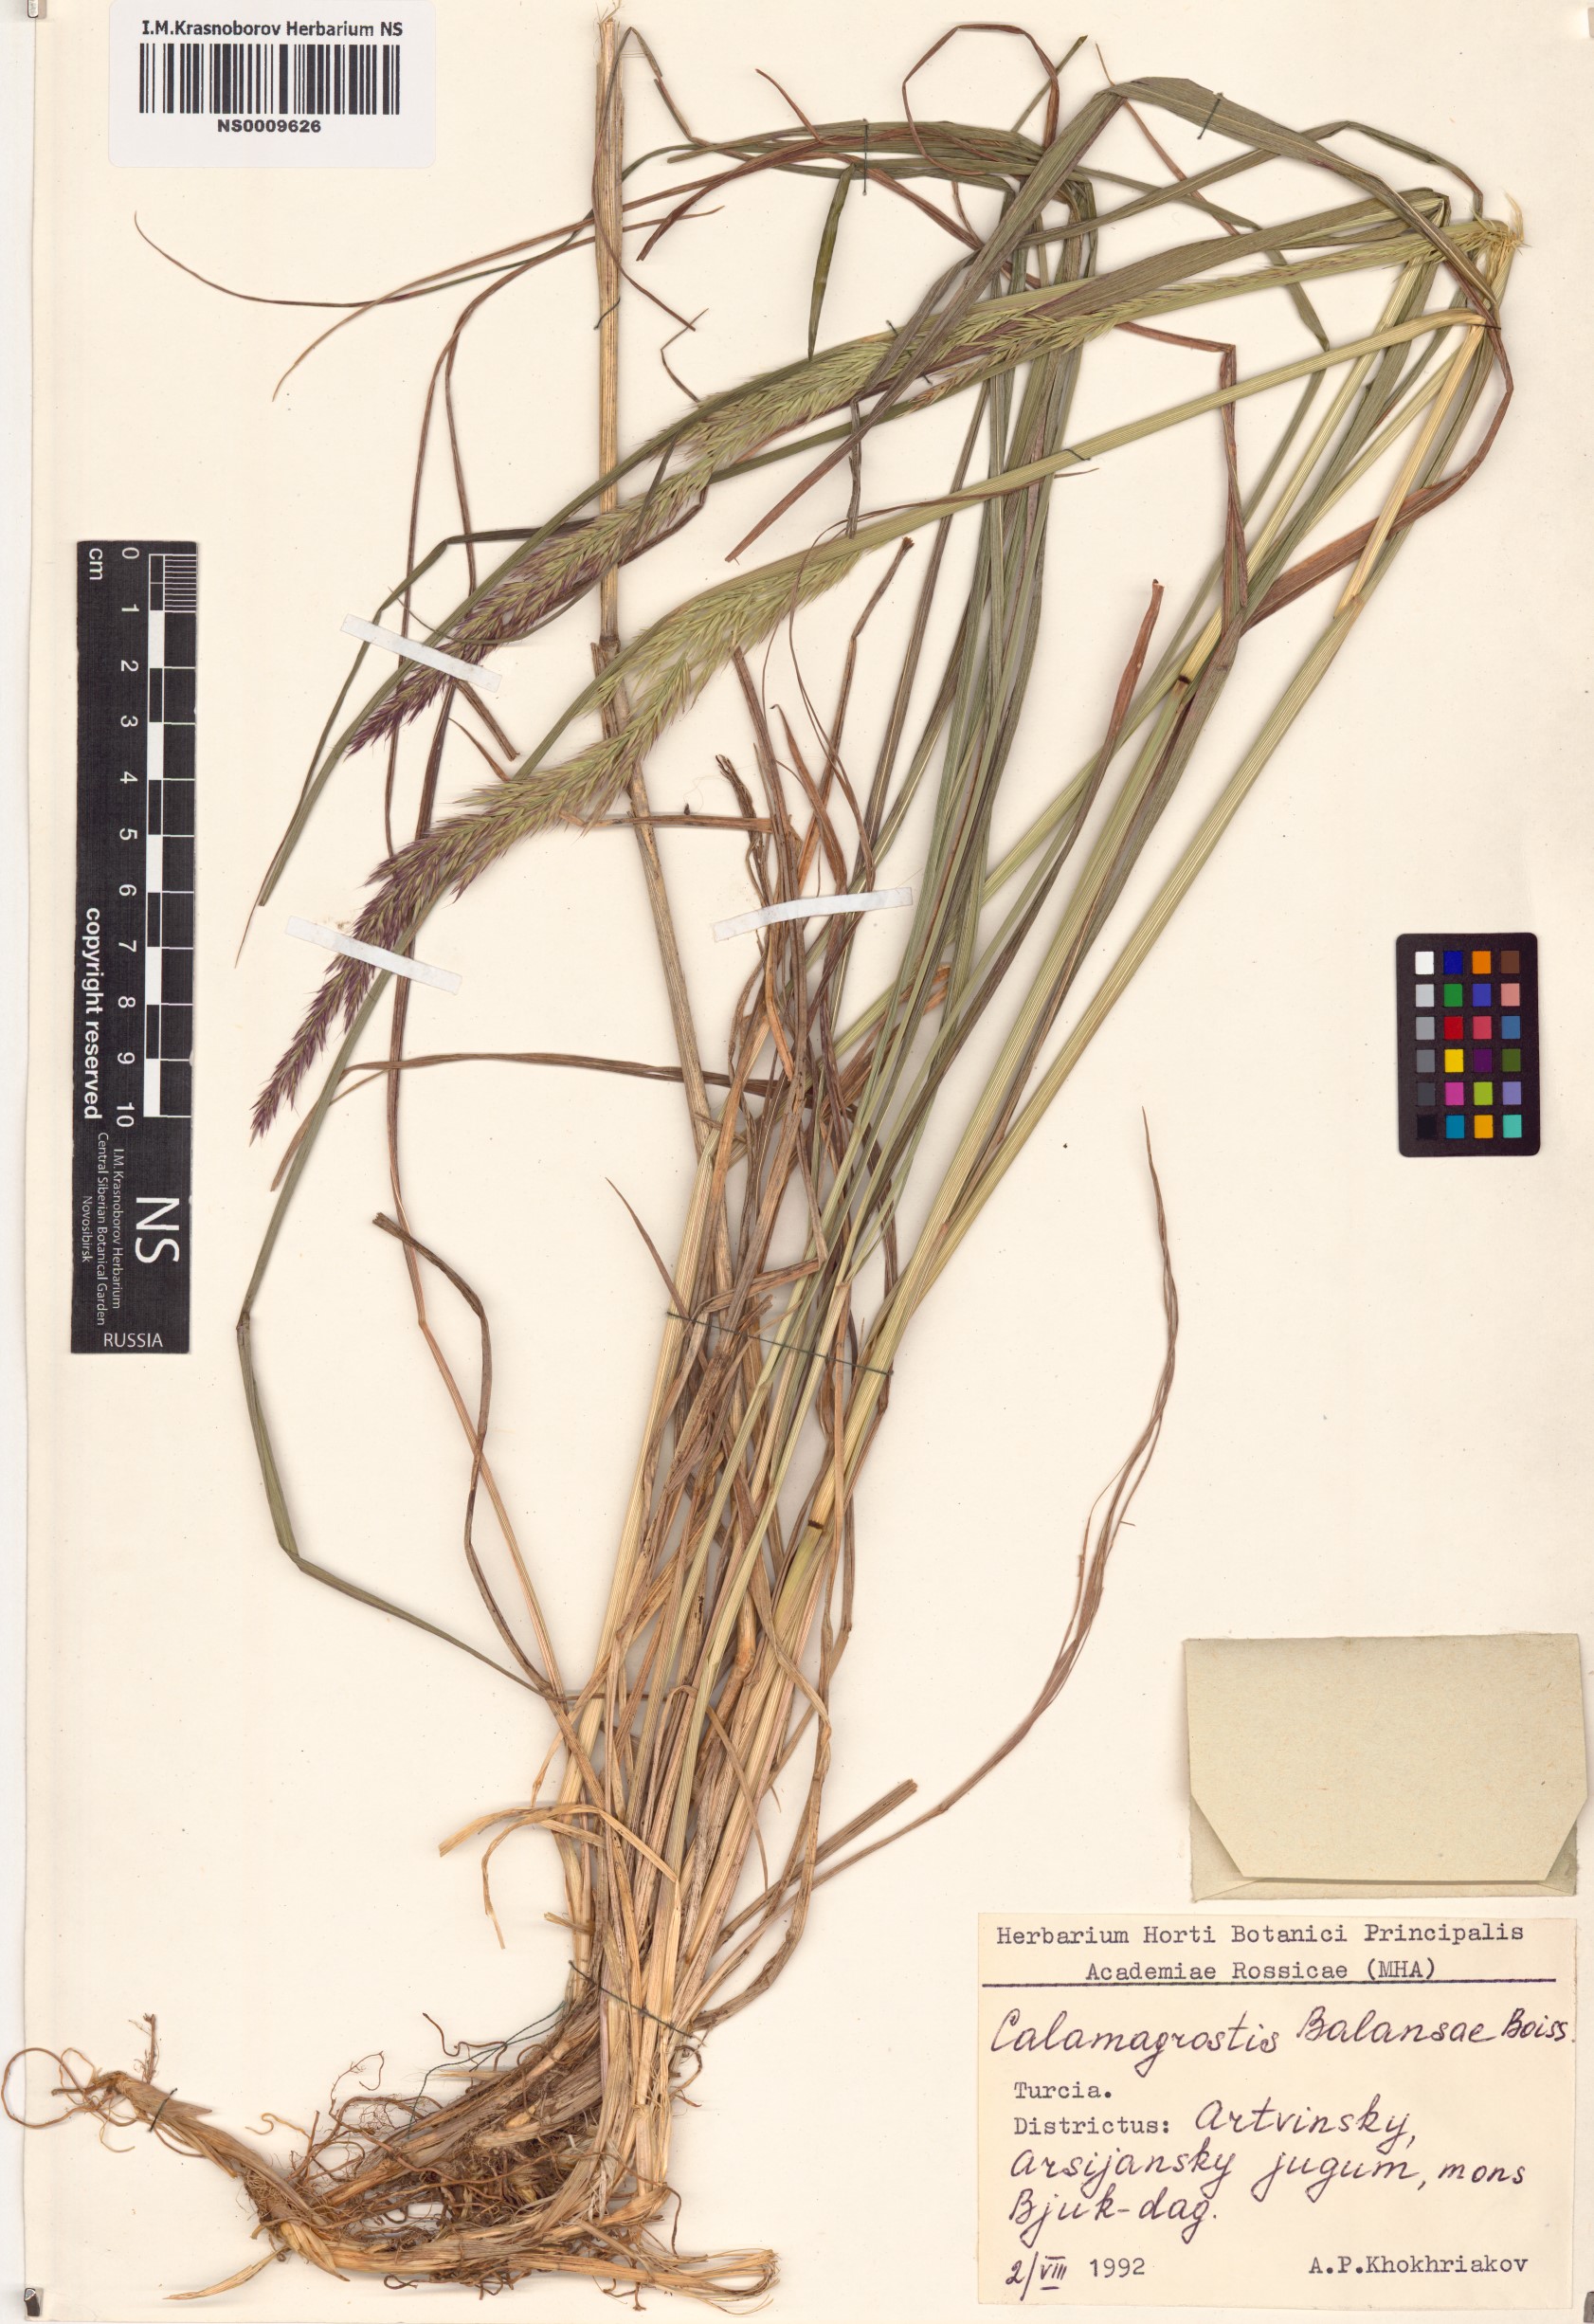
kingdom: Plantae
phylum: Tracheophyta
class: Liliopsida
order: Poales
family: Poaceae
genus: Agrostis
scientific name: Agrostis balansae
